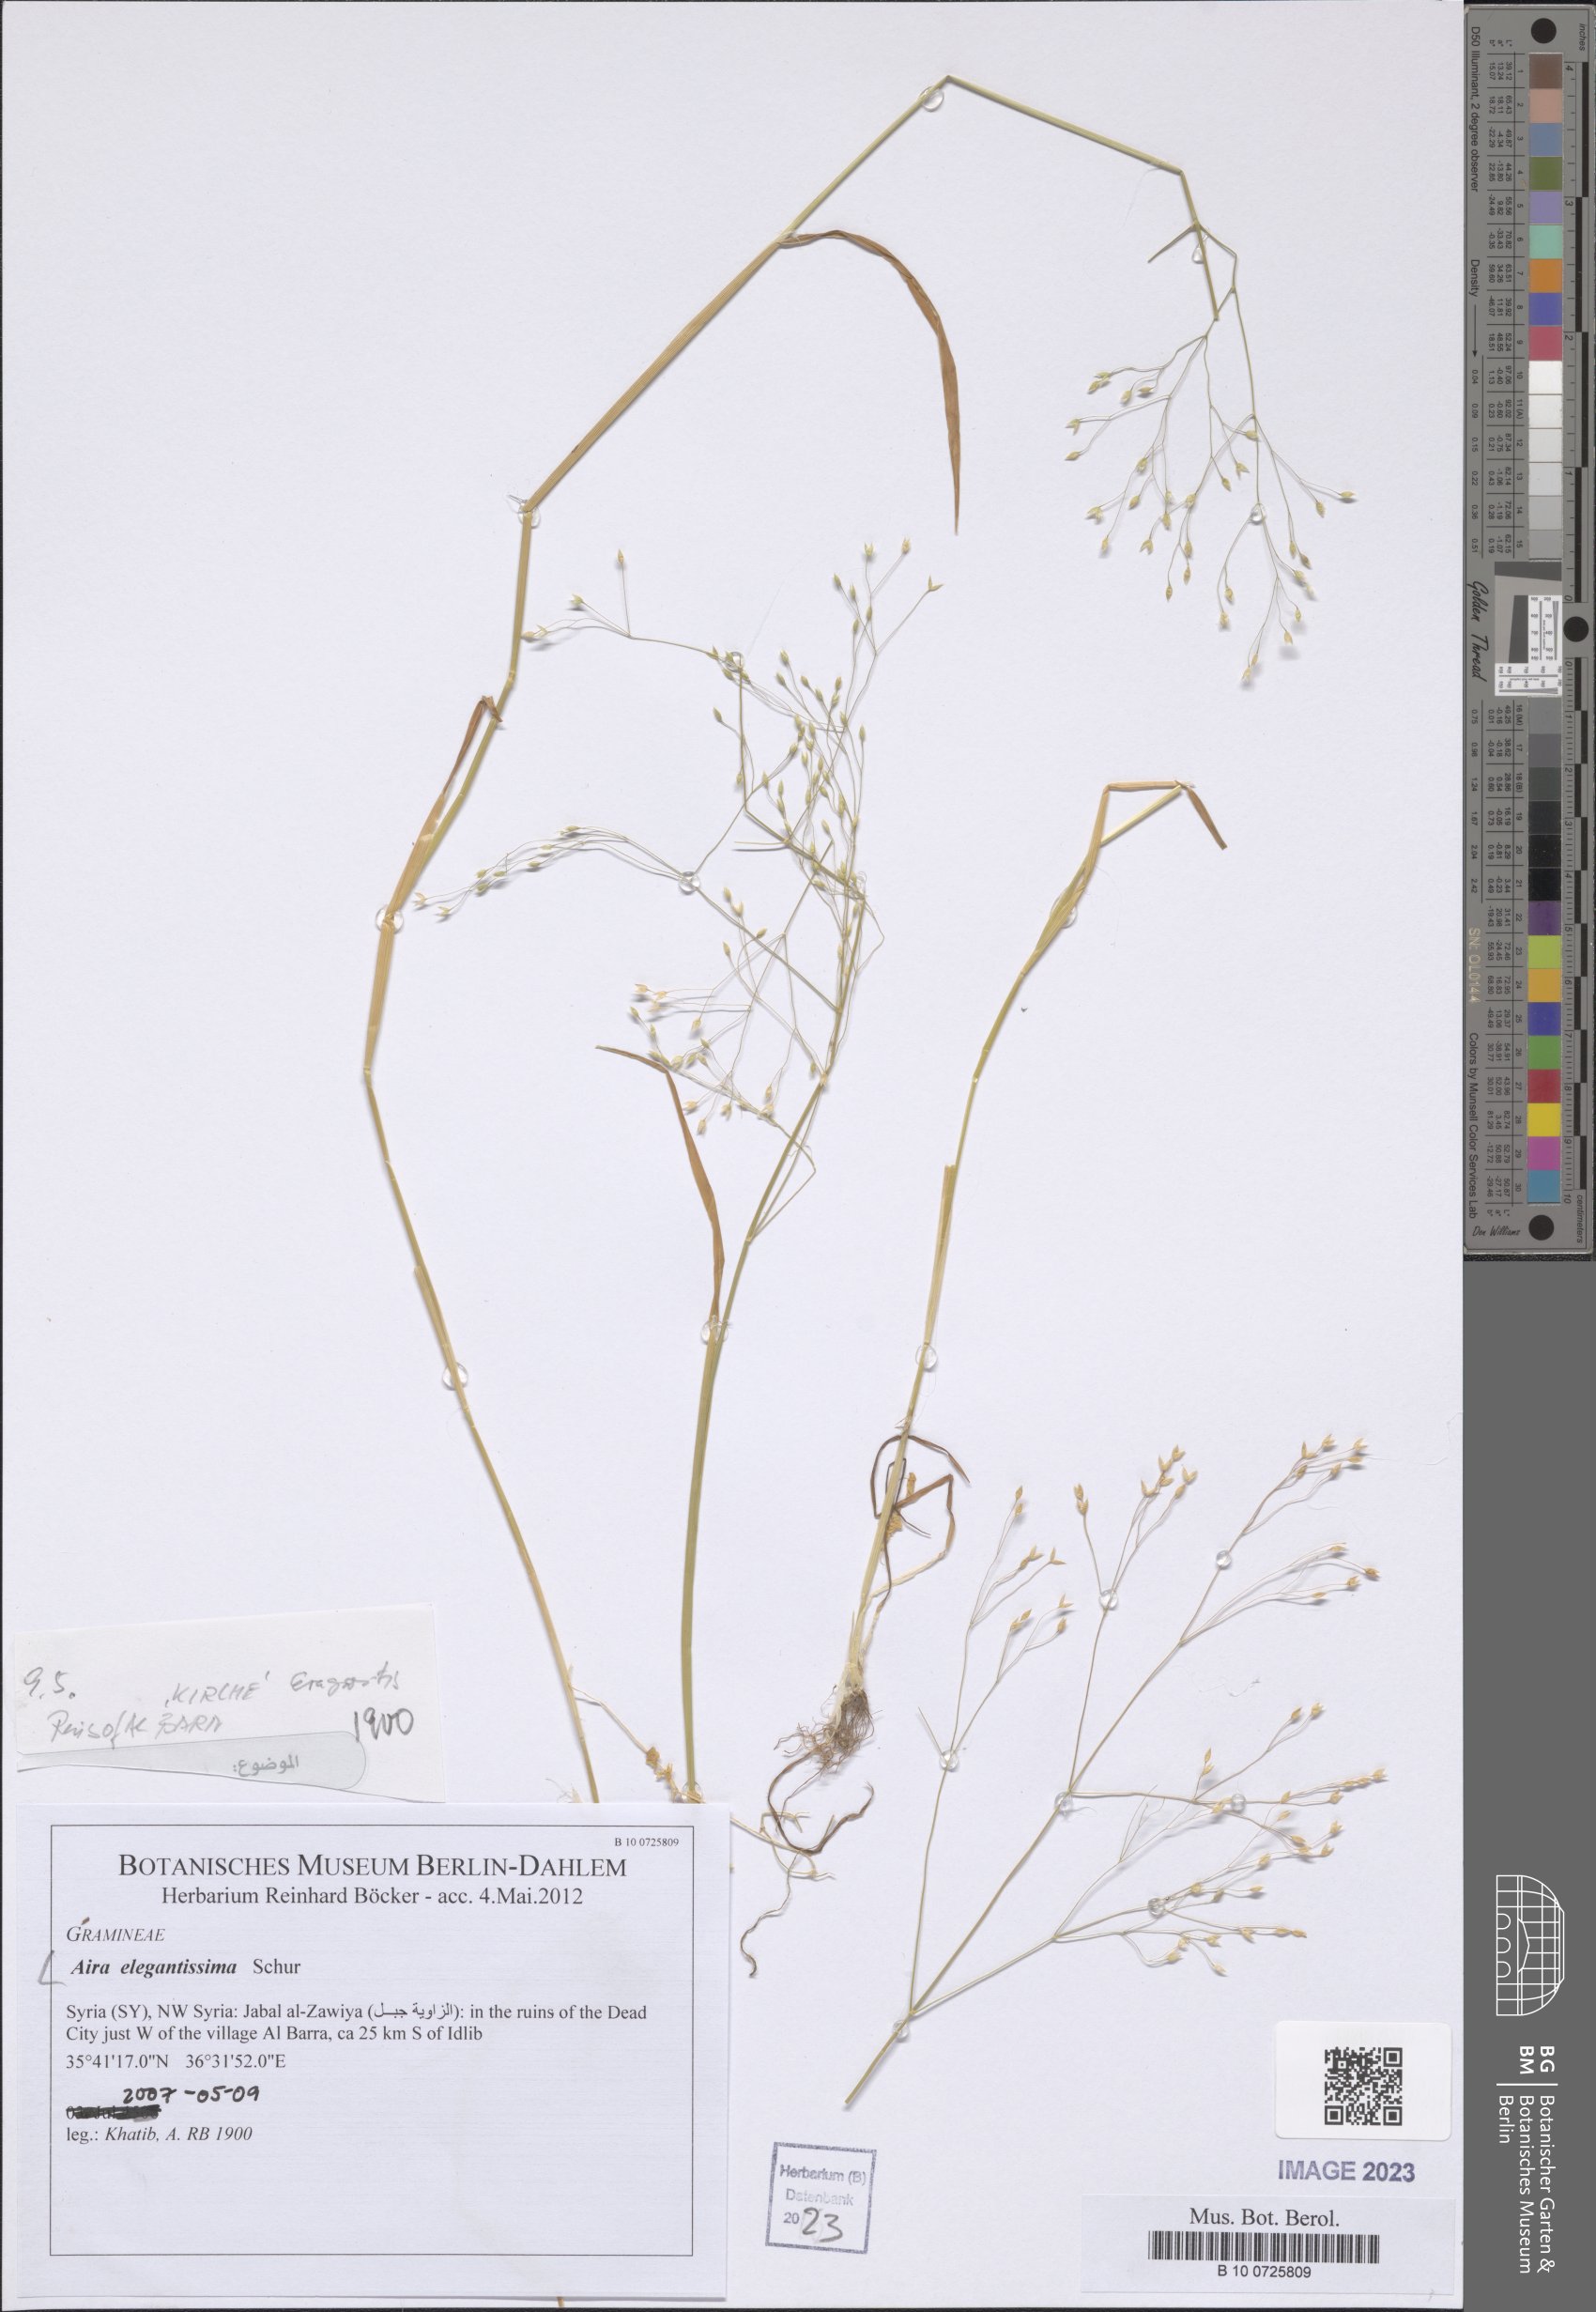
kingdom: Plantae
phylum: Tracheophyta
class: Liliopsida
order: Poales
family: Poaceae
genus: Aira
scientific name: Aira elegans
